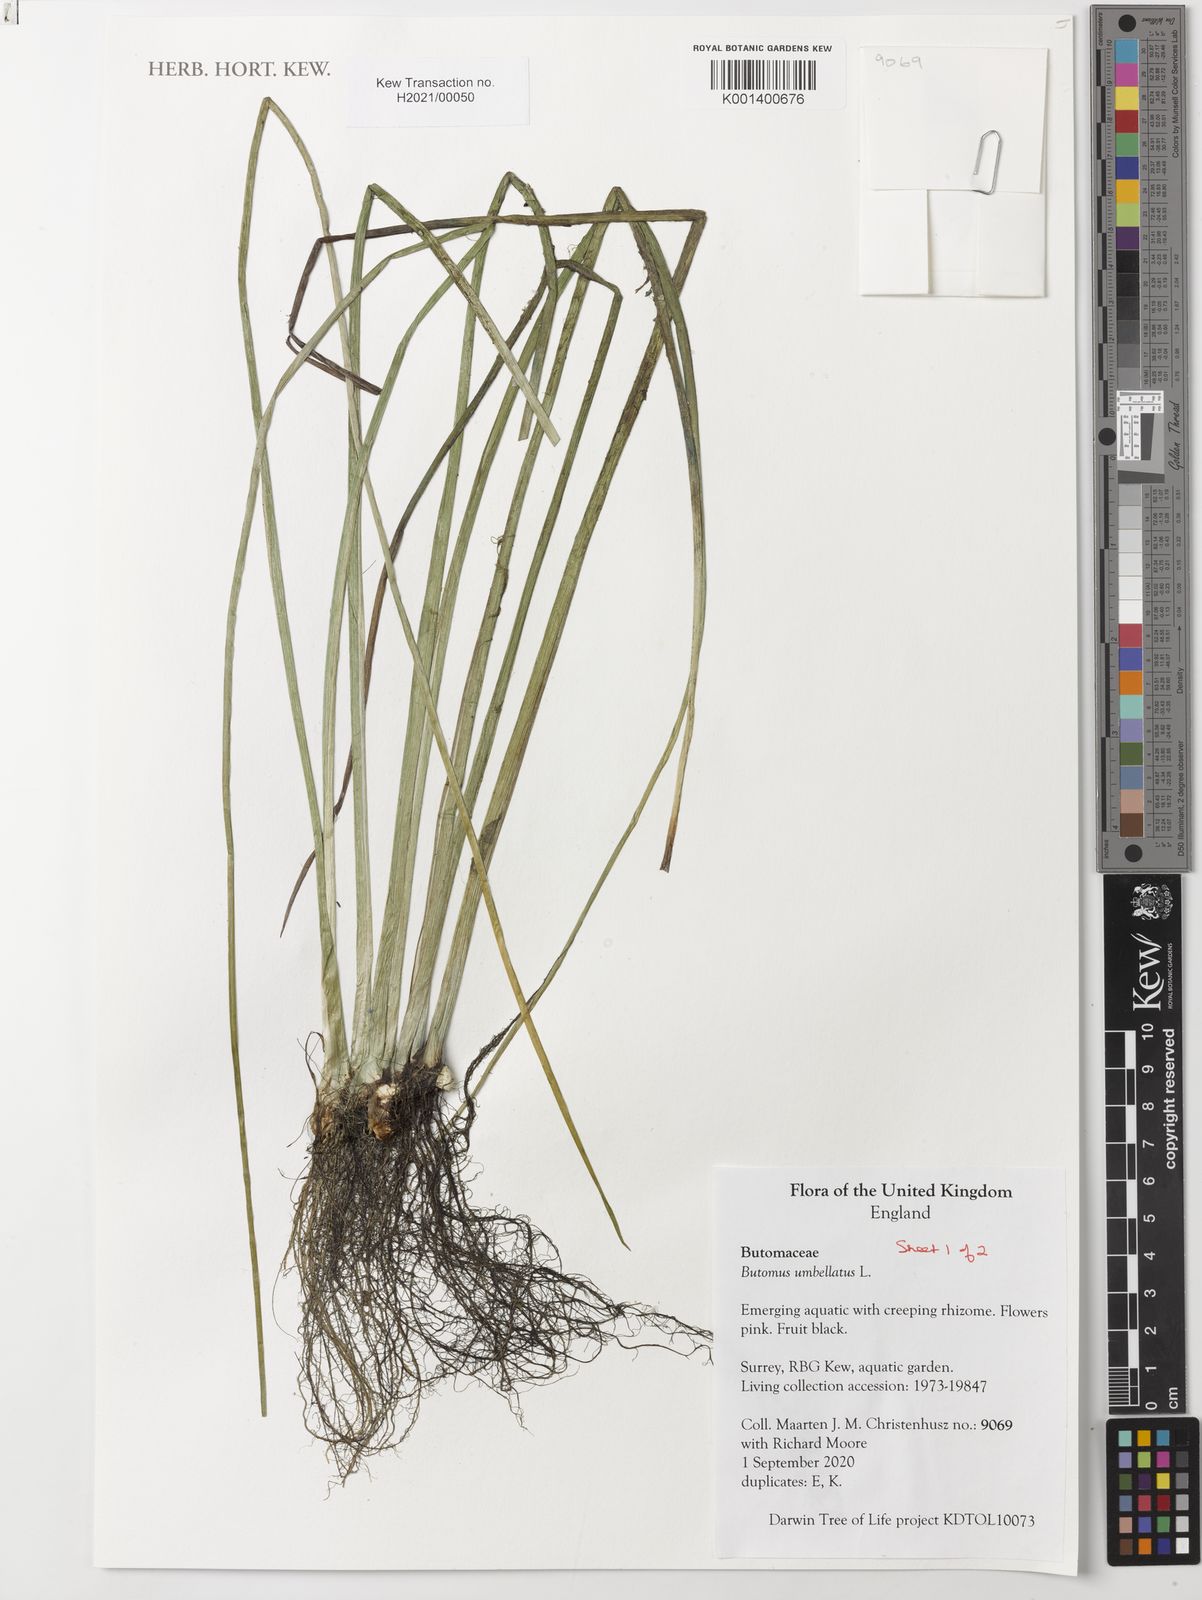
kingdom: Plantae
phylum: Tracheophyta
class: Liliopsida
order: Alismatales
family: Butomaceae
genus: Butomus
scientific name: Butomus umbellatus
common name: Flowering-rush
